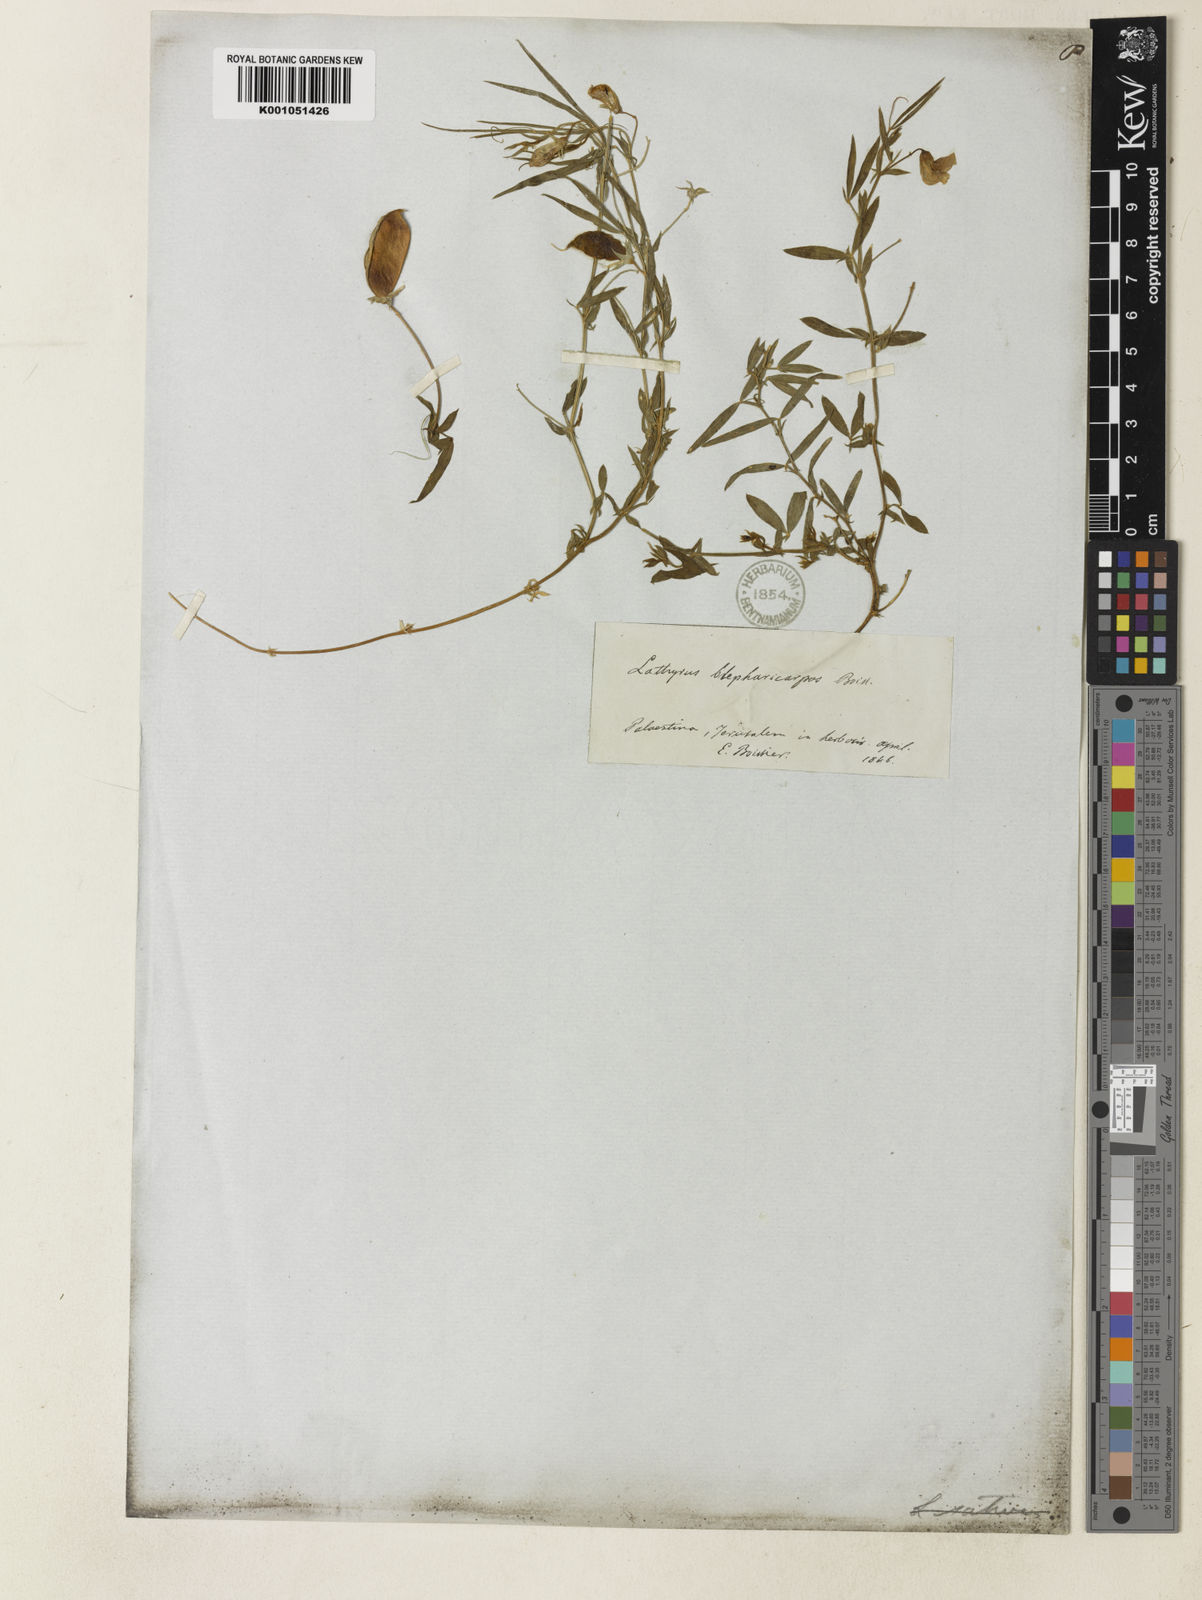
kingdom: Plantae
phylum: Tracheophyta
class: Magnoliopsida
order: Fabales
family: Fabaceae
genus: Lathyrus
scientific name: Lathyrus
